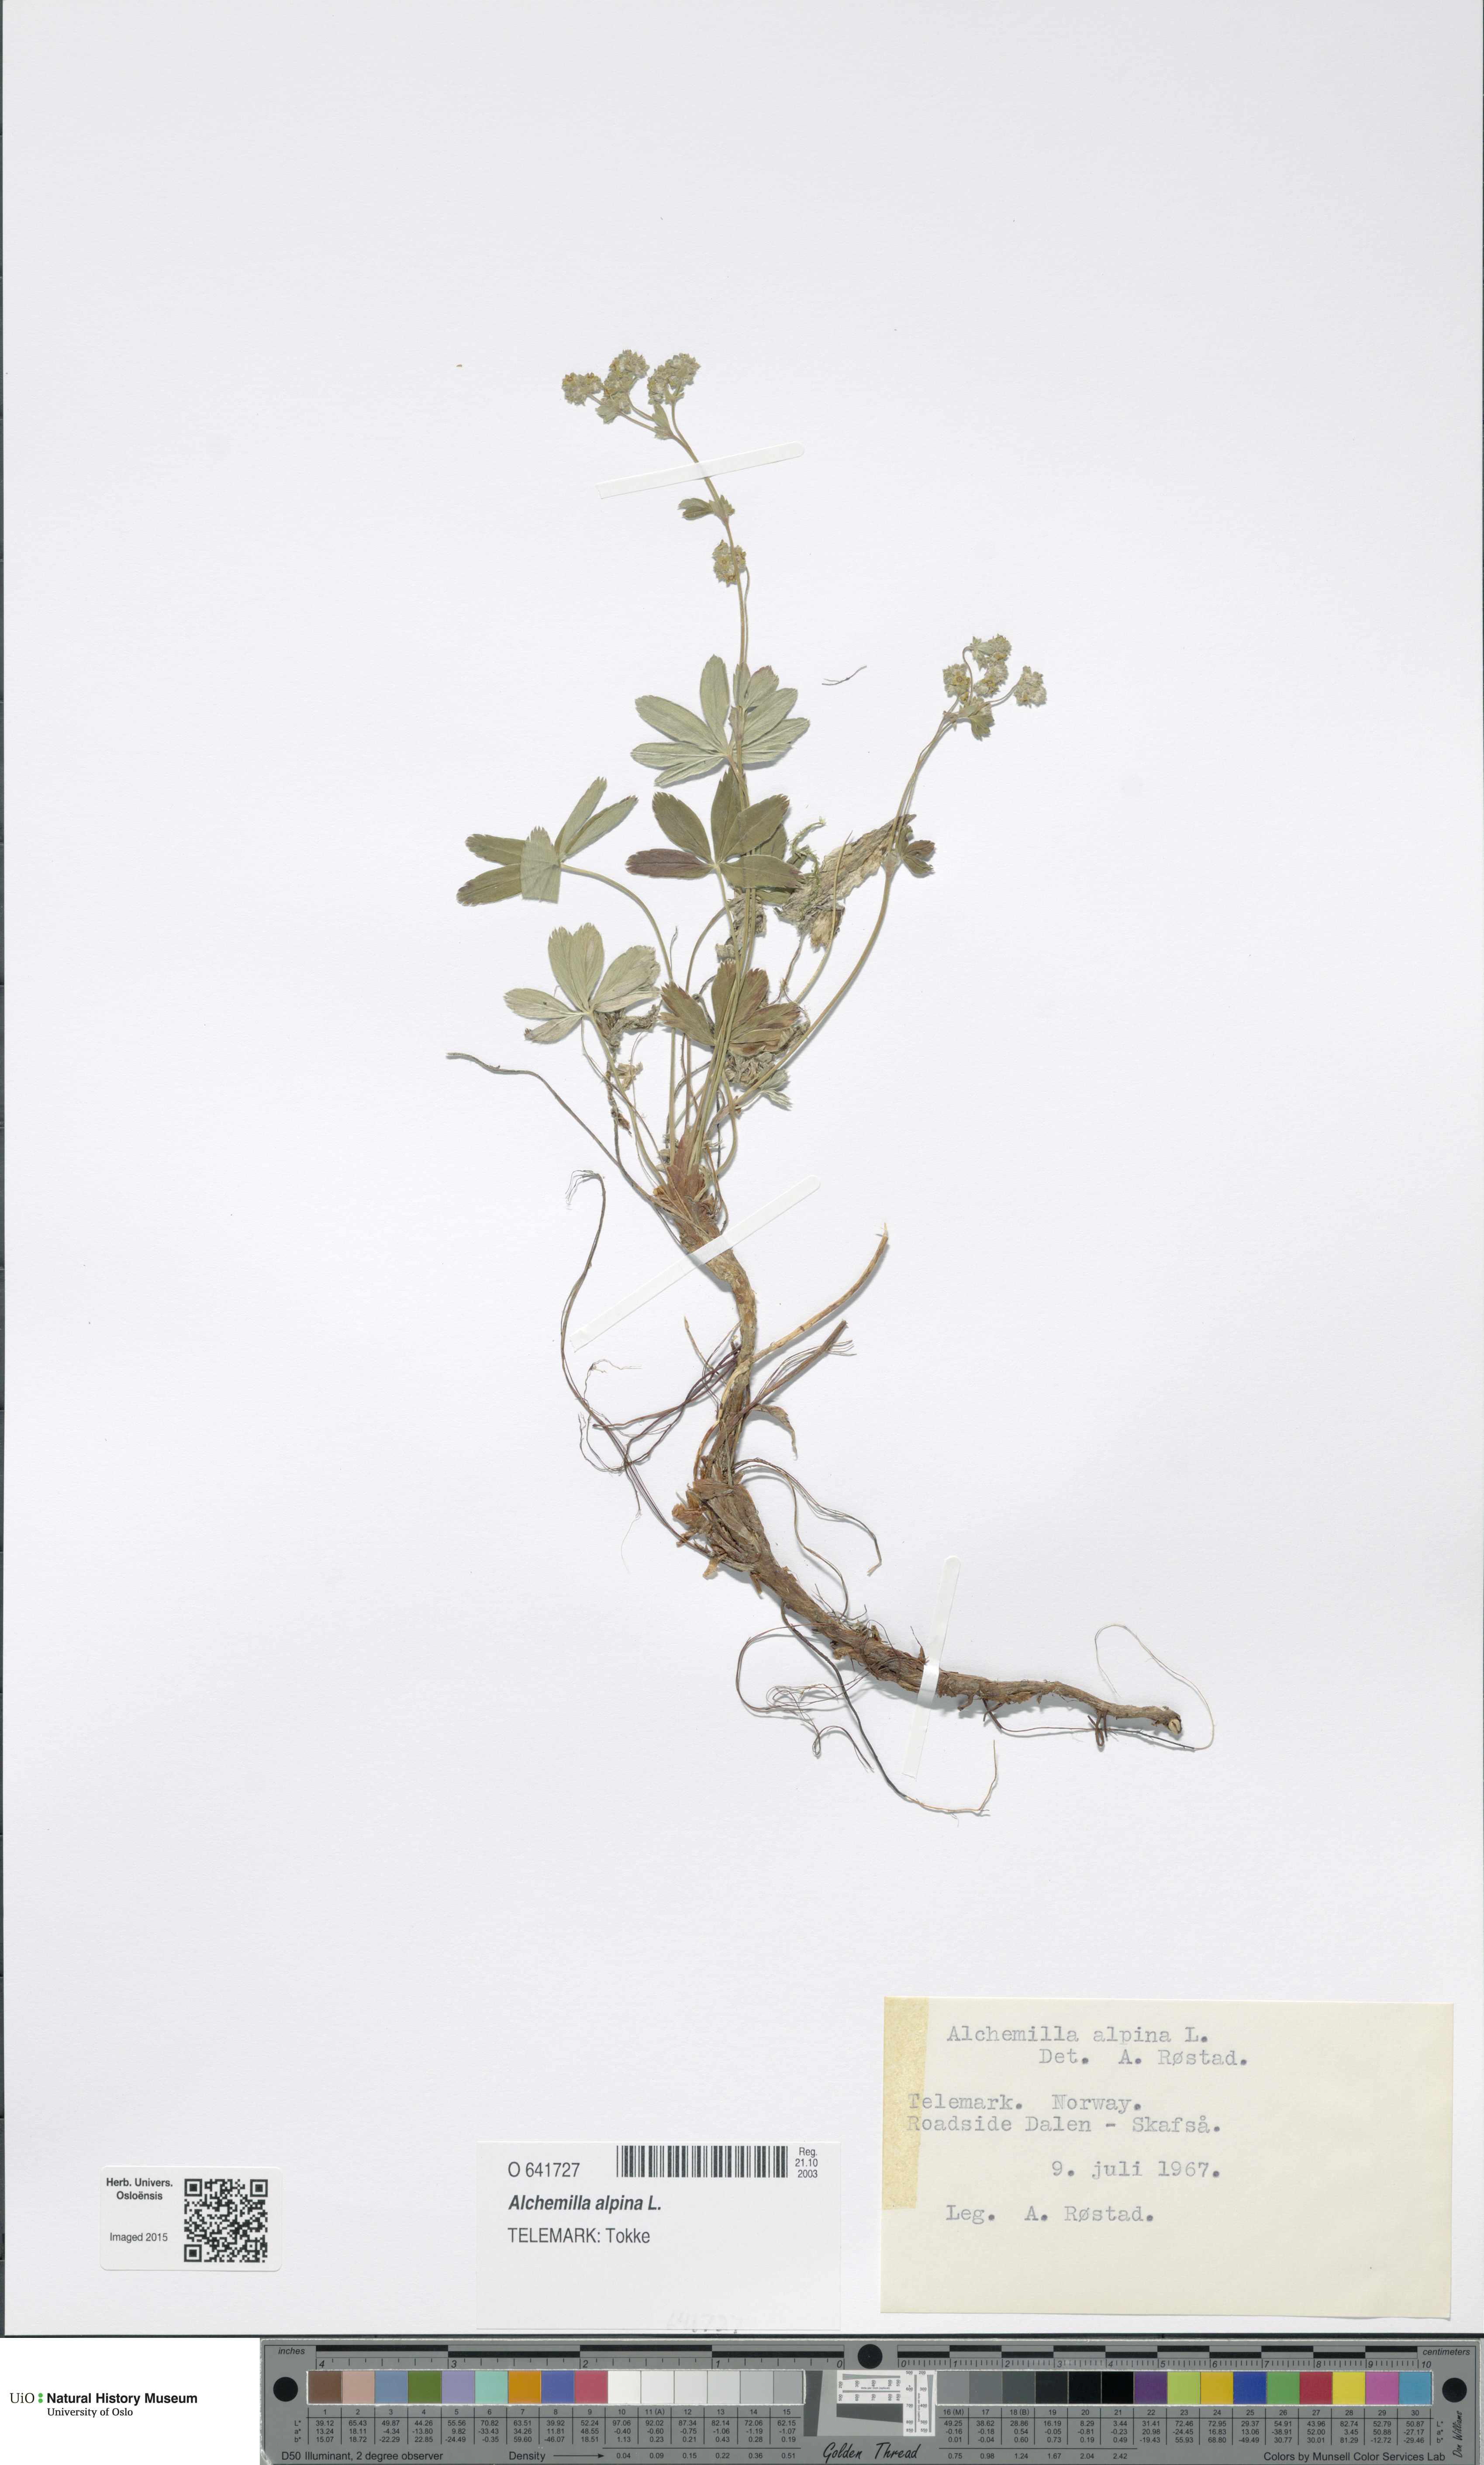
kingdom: Plantae
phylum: Tracheophyta
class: Magnoliopsida
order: Rosales
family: Rosaceae
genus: Alchemilla
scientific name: Alchemilla alpina
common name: Alpine lady's-mantle
